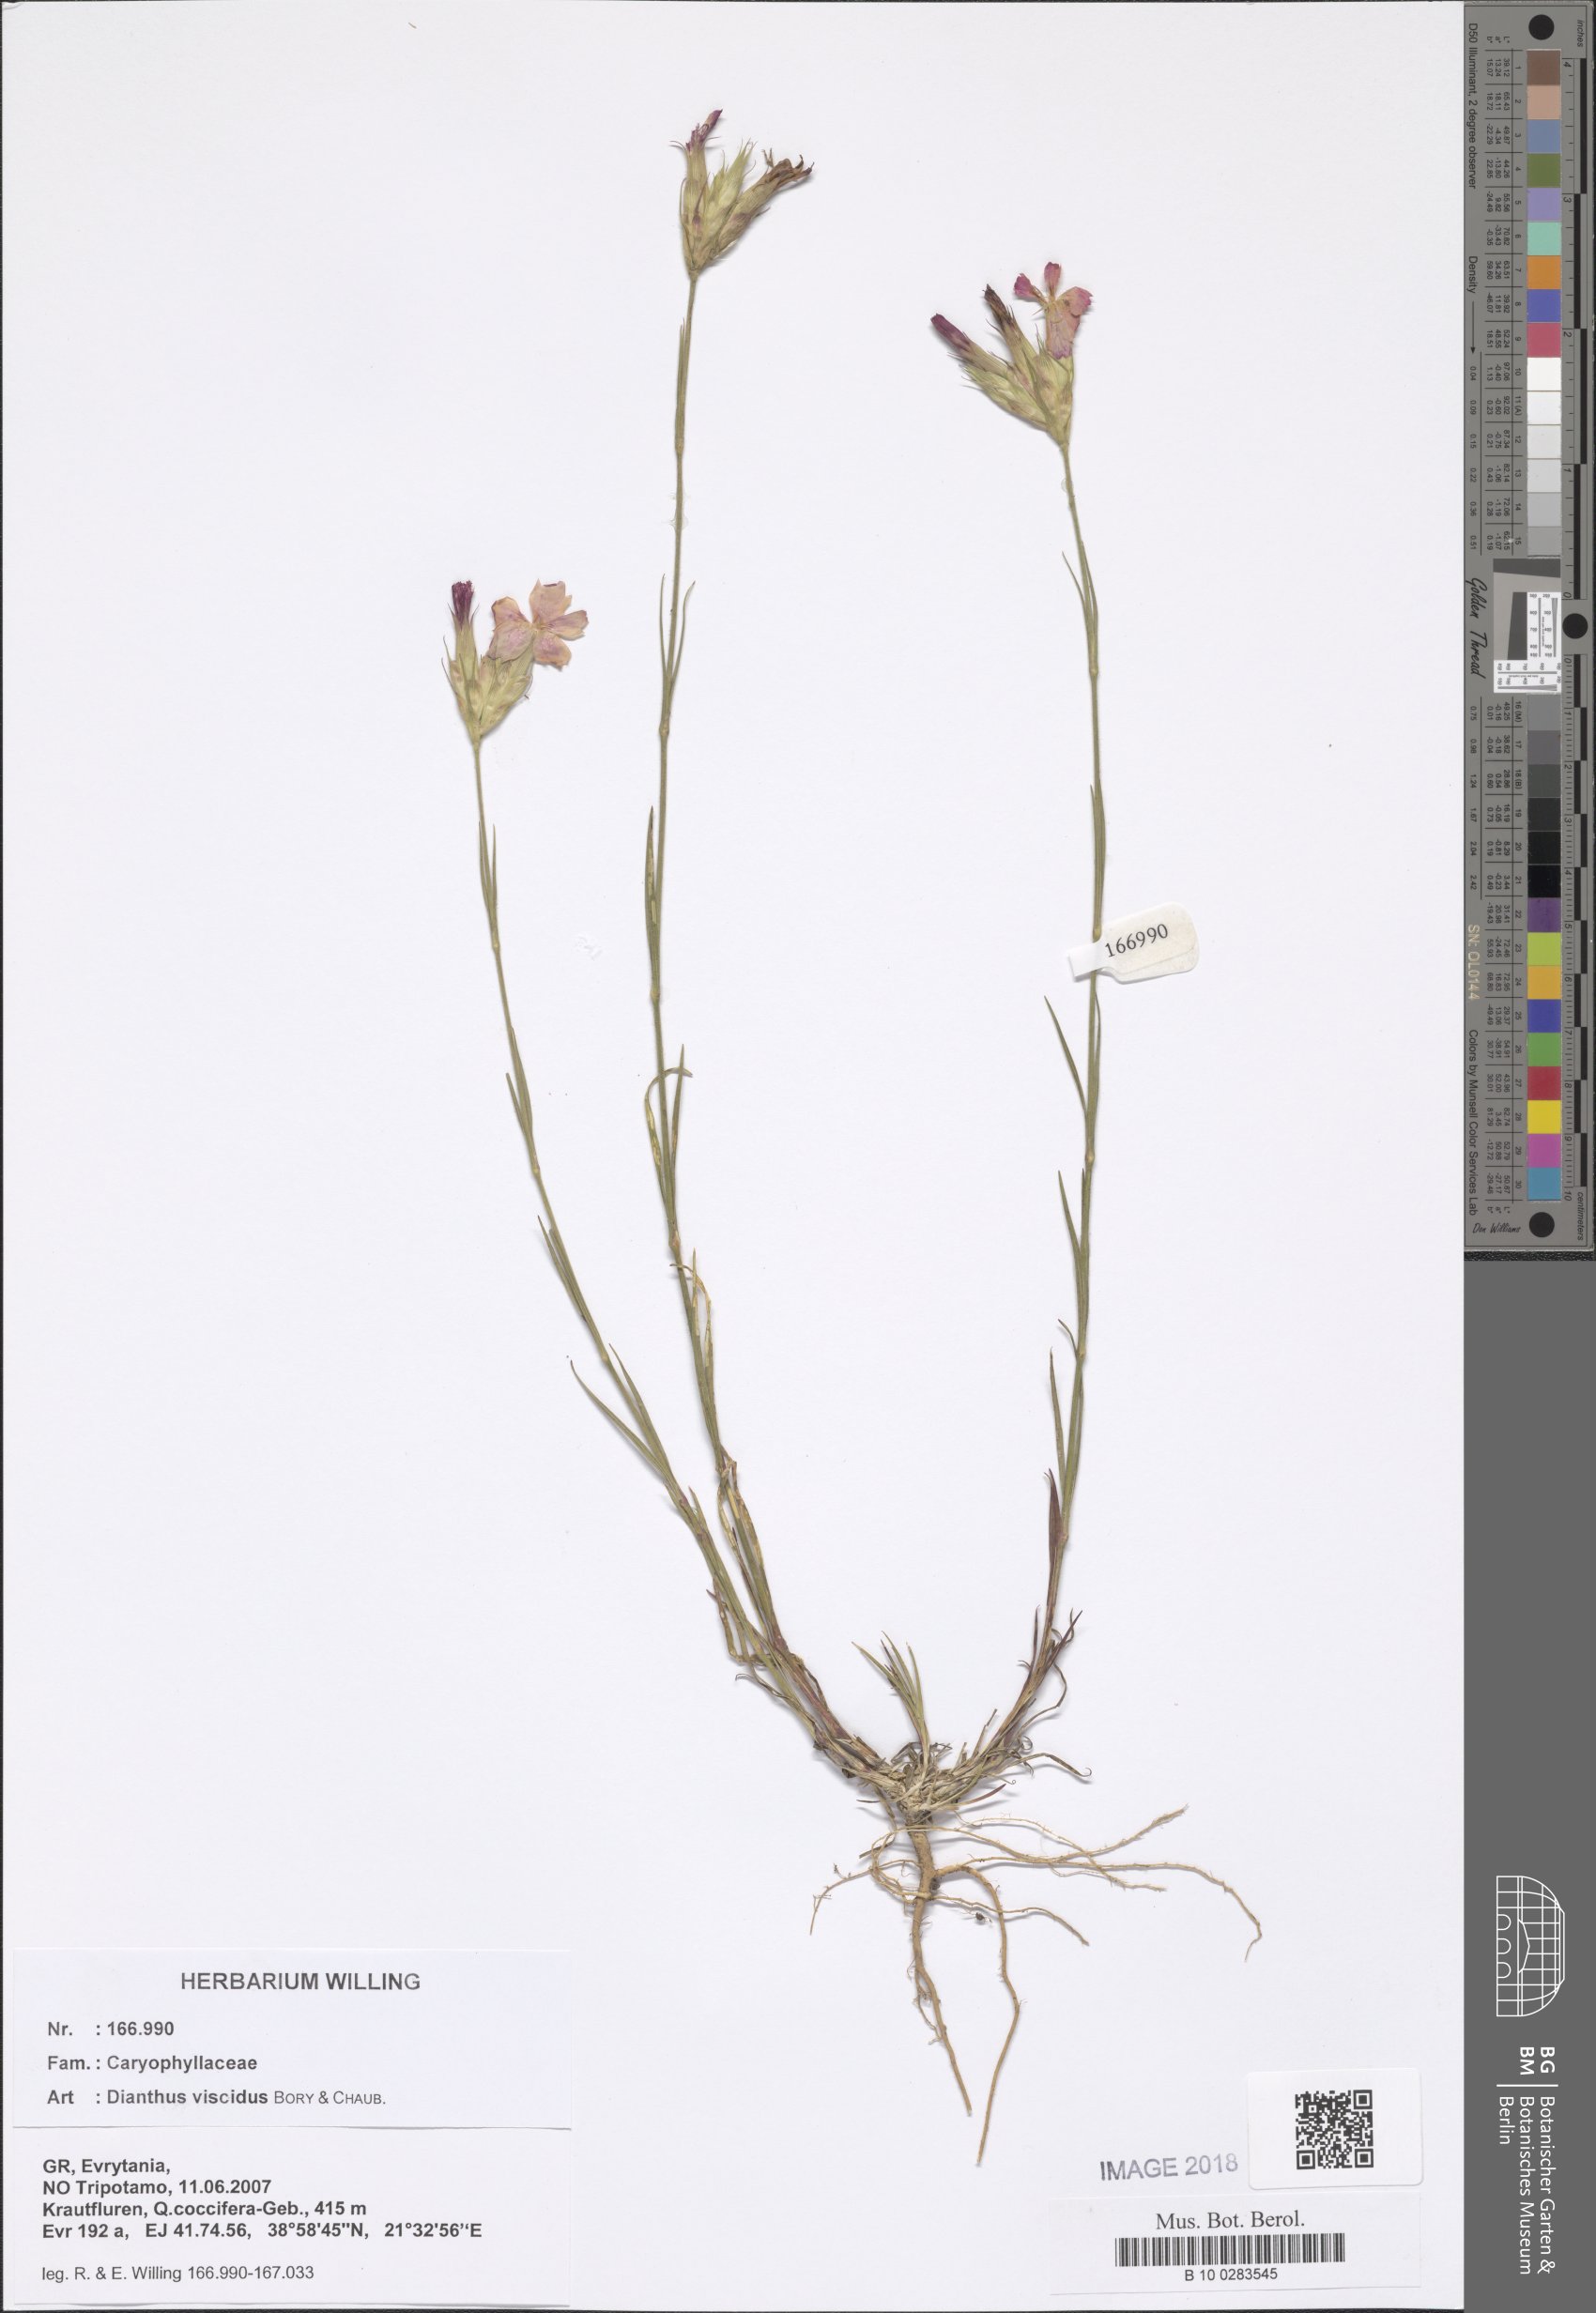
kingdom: Plantae
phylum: Tracheophyta
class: Magnoliopsida
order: Caryophyllales
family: Caryophyllaceae
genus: Dianthus
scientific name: Dianthus viscidus
